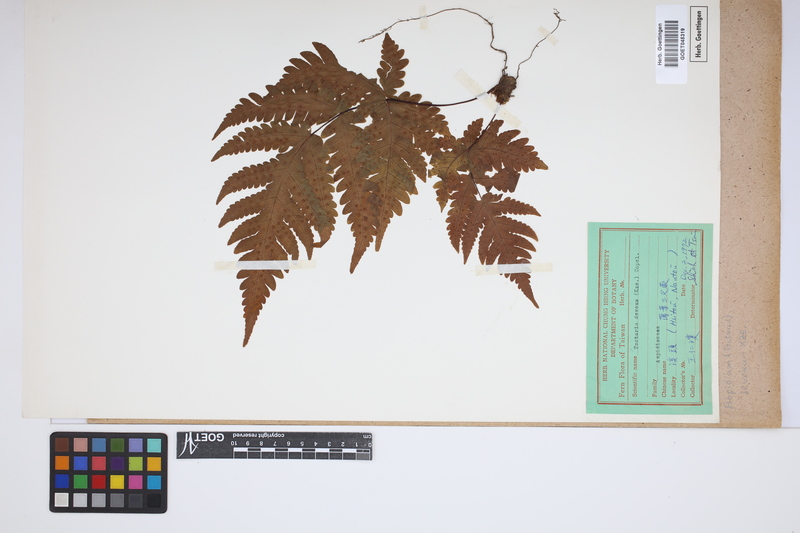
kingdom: Plantae
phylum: Tracheophyta
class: Polypodiopsida
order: Polypodiales
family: Tectariaceae
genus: Tectaria
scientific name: Tectaria membranacea
